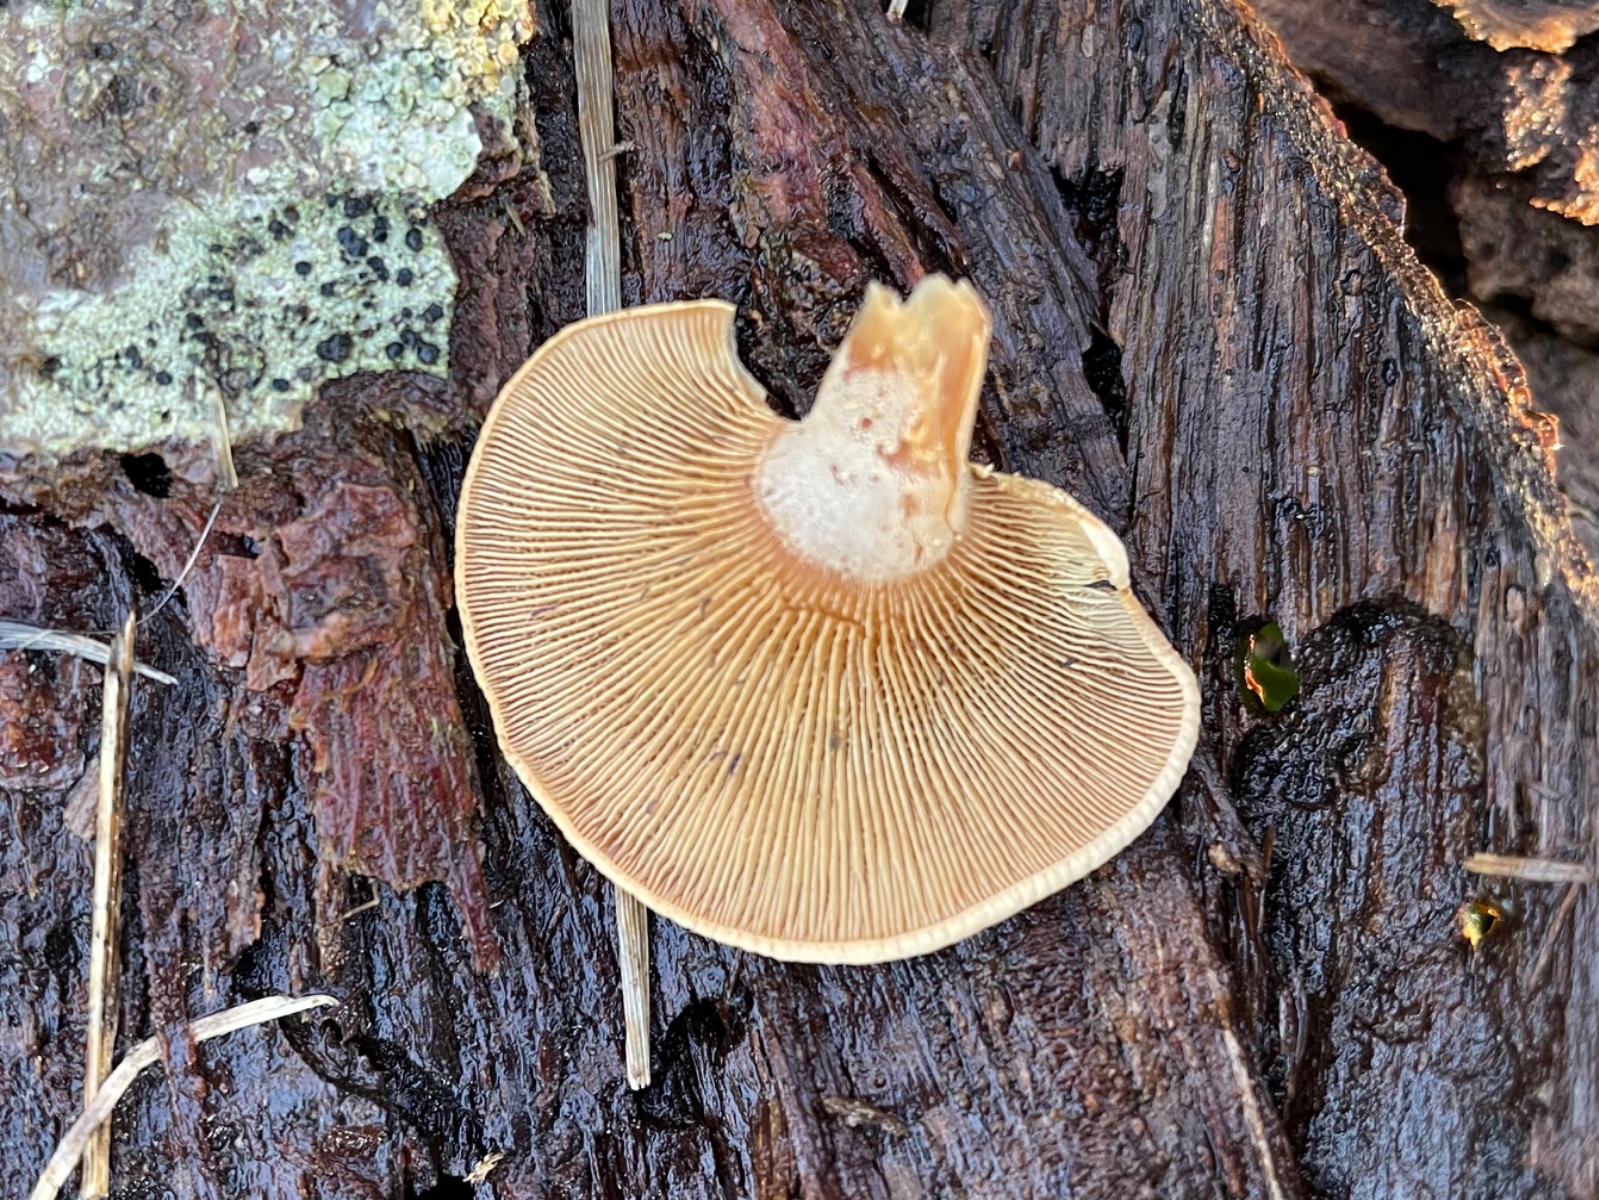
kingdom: Fungi
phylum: Basidiomycota
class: Agaricomycetes
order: Agaricales
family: Mycenaceae
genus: Panellus
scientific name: Panellus stipticus
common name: kliddet epaulethat
